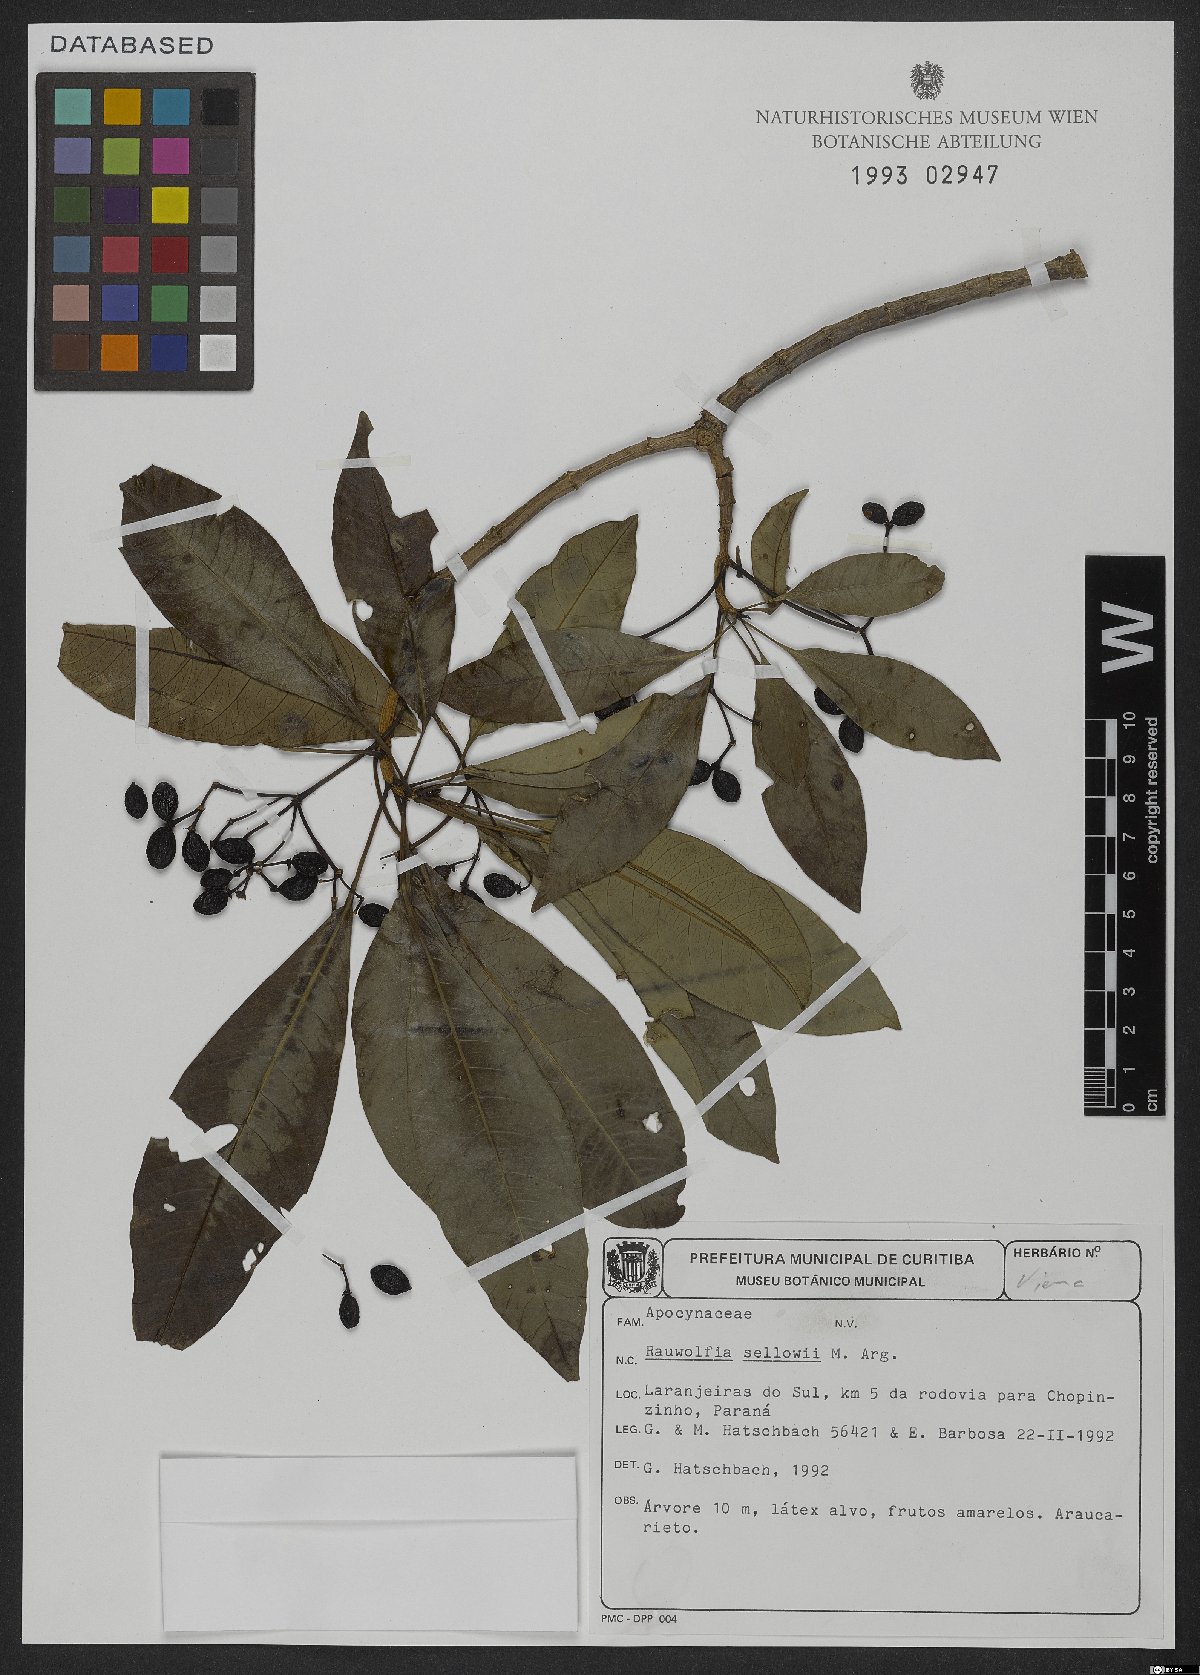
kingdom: Plantae
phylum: Tracheophyta
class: Magnoliopsida
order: Gentianales
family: Apocynaceae
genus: Rauvolfia
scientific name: Rauvolfia sellowii
